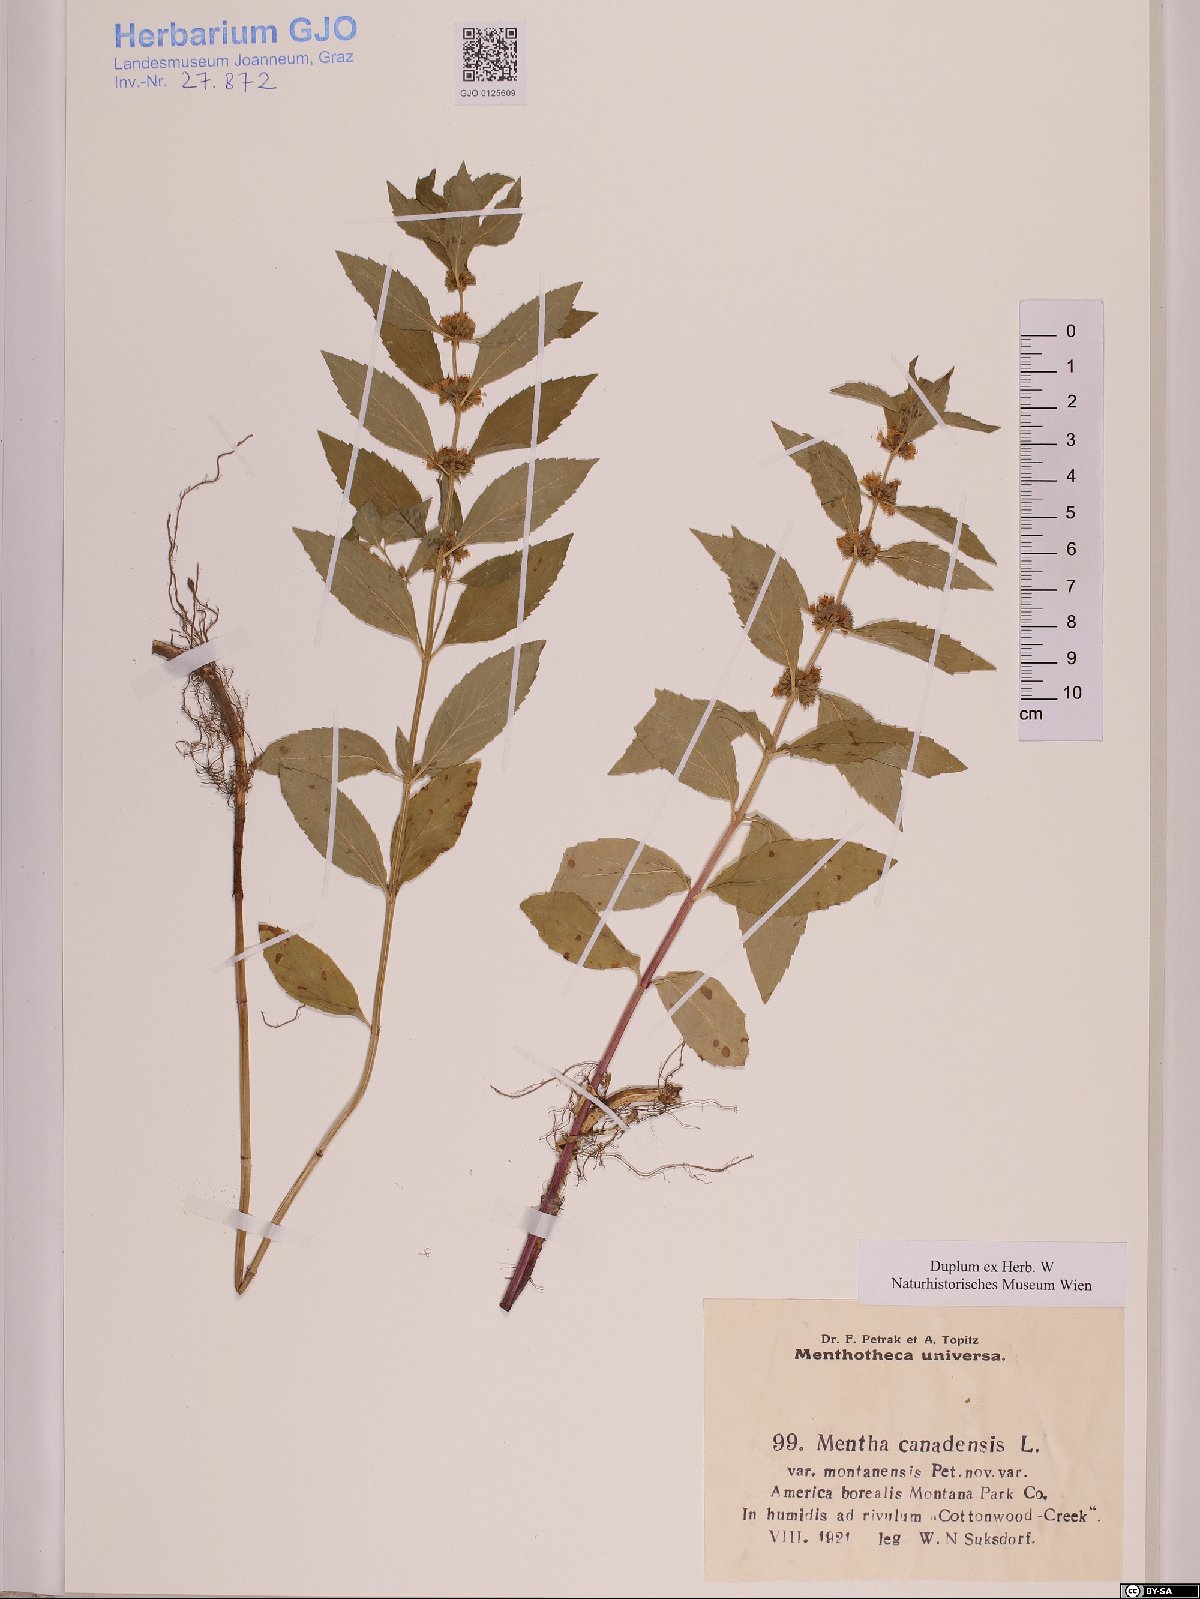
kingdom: Plantae
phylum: Tracheophyta
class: Magnoliopsida
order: Lamiales
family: Lamiaceae
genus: Mentha
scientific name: Mentha canadensis
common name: American corn mint
